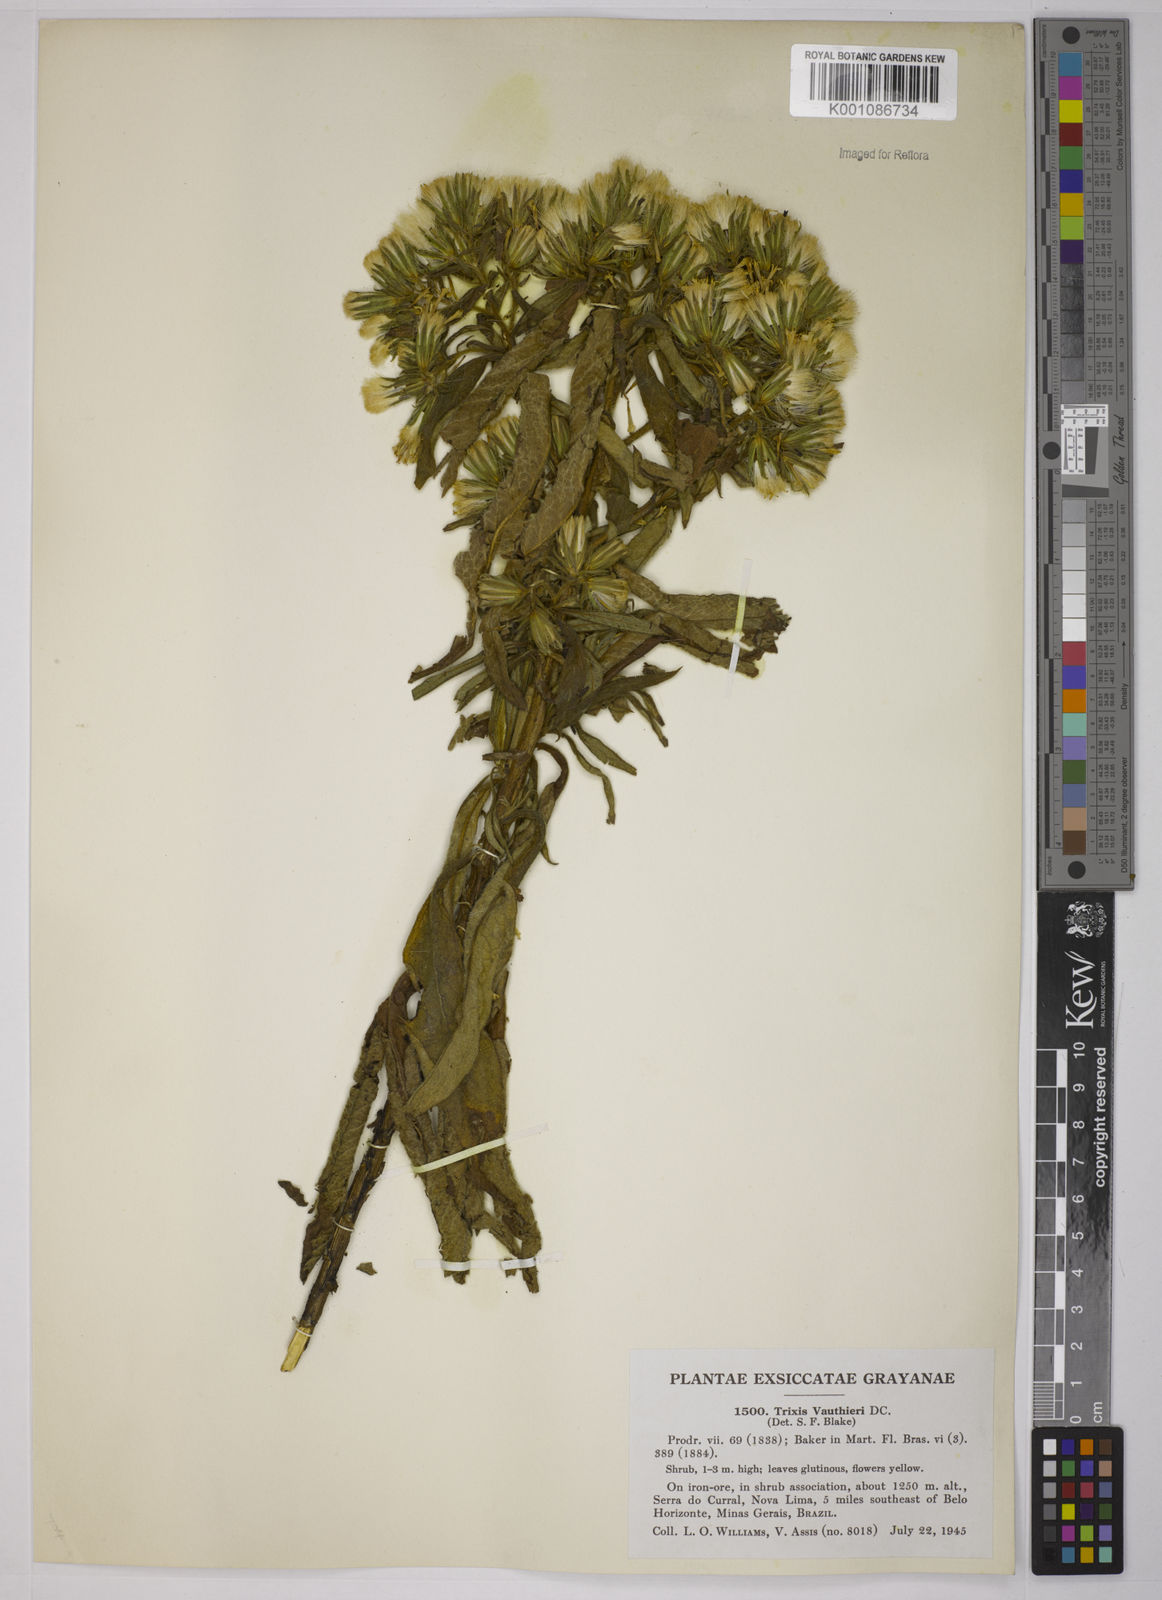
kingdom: Plantae
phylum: Tracheophyta
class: Magnoliopsida
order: Asterales
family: Asteraceae
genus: Trixis
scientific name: Trixis vauthieri
